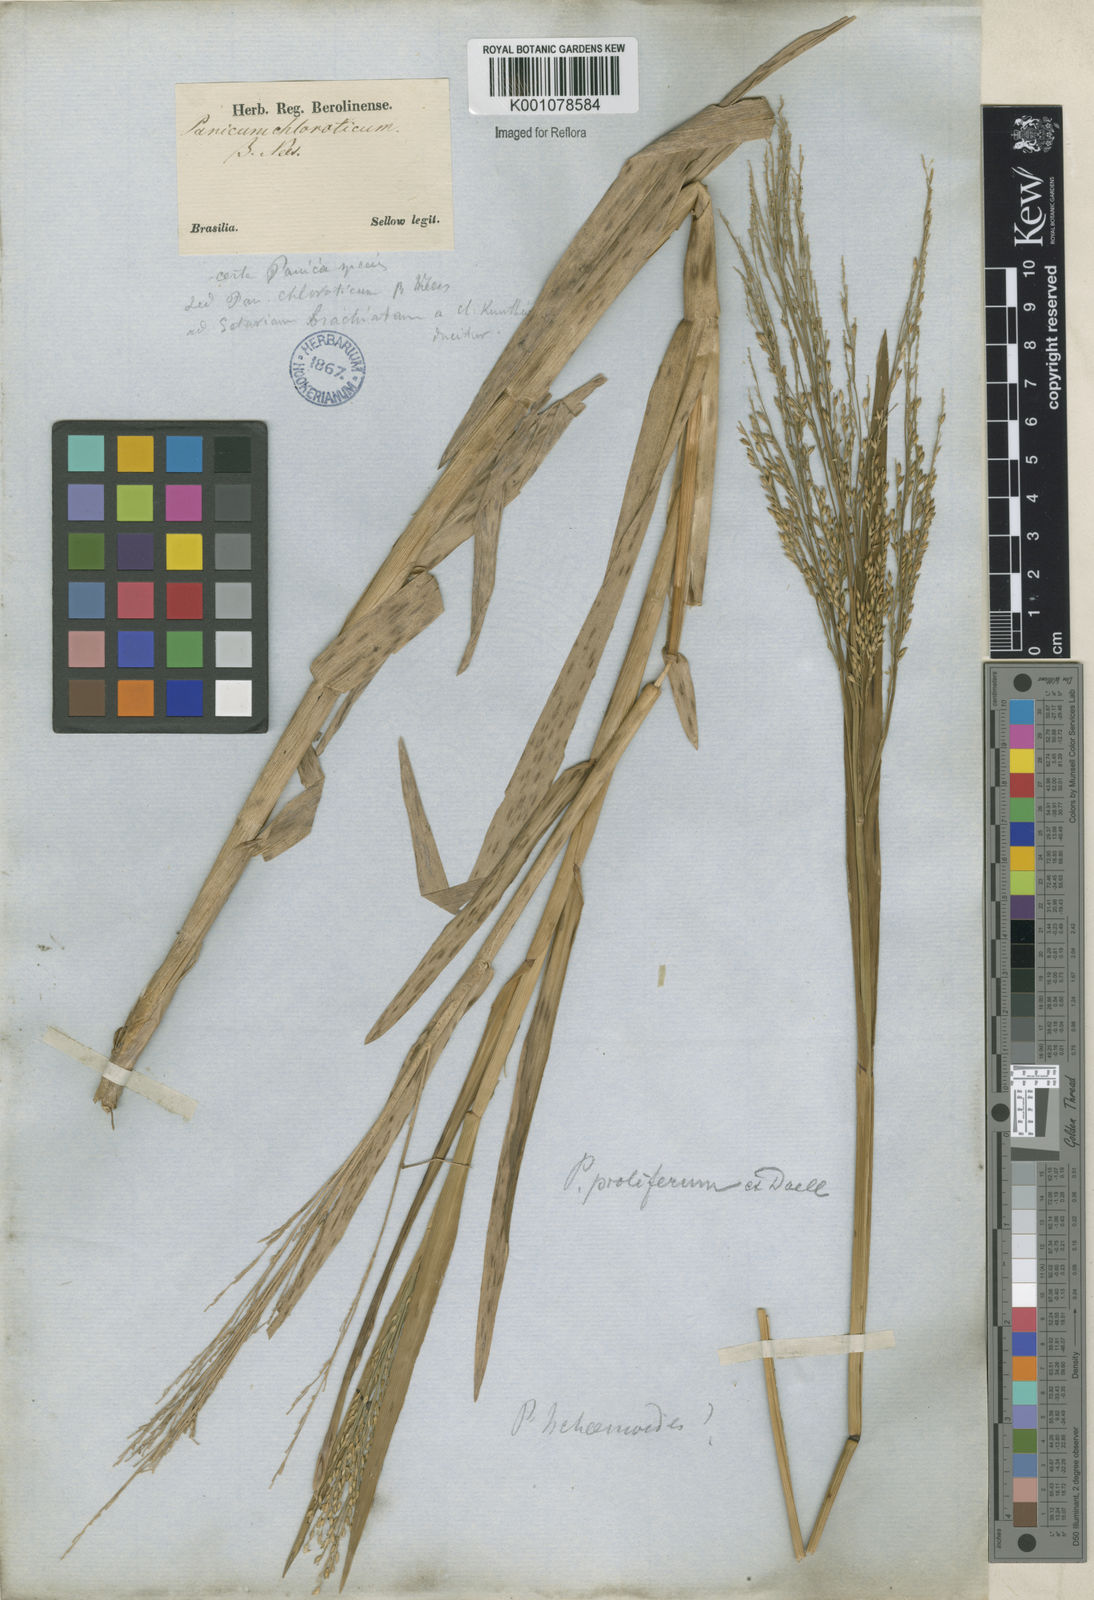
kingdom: Plantae
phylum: Tracheophyta
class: Liliopsida
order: Poales
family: Poaceae
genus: Panicum
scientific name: Panicum dichotomiflorum
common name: Autumn millet
